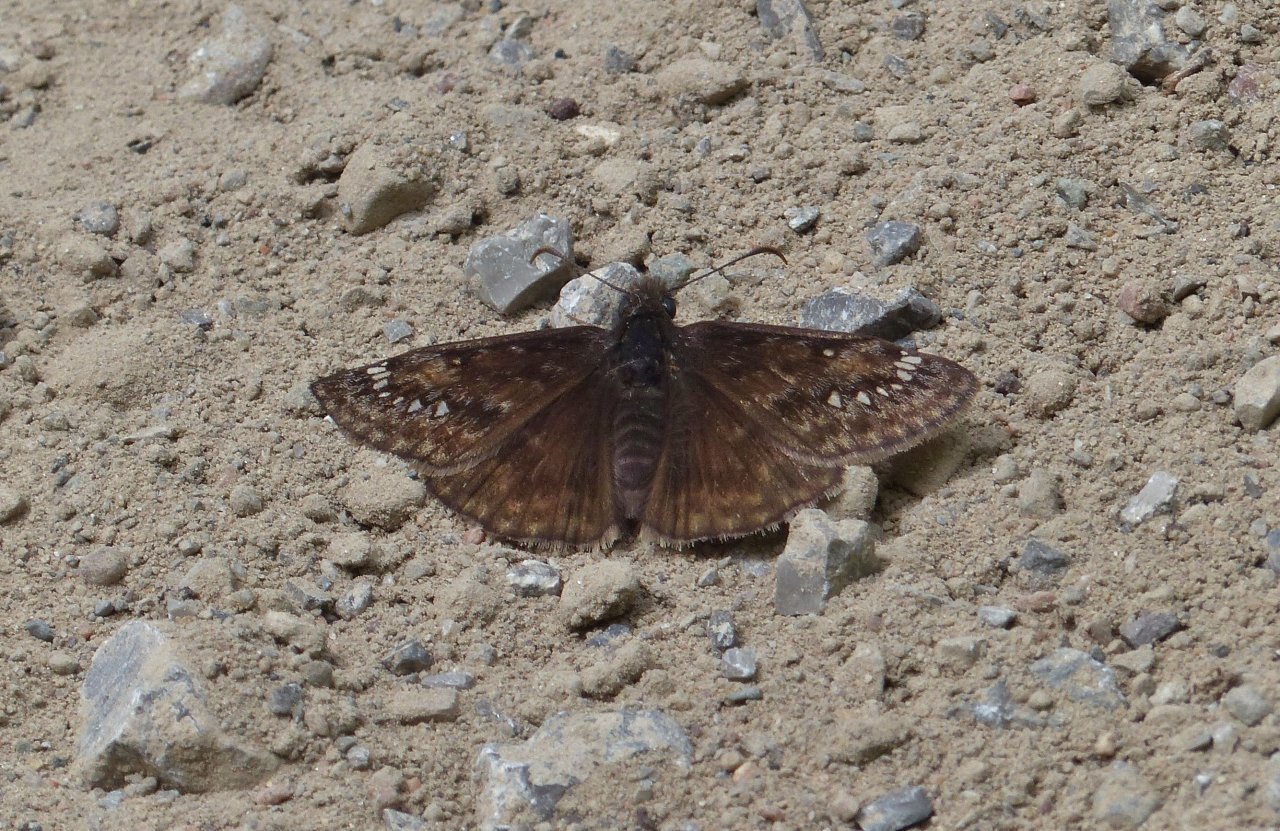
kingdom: Animalia
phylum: Arthropoda
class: Insecta
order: Lepidoptera
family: Hesperiidae
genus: Gesta
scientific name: Gesta
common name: Juvenal's Duskywing
